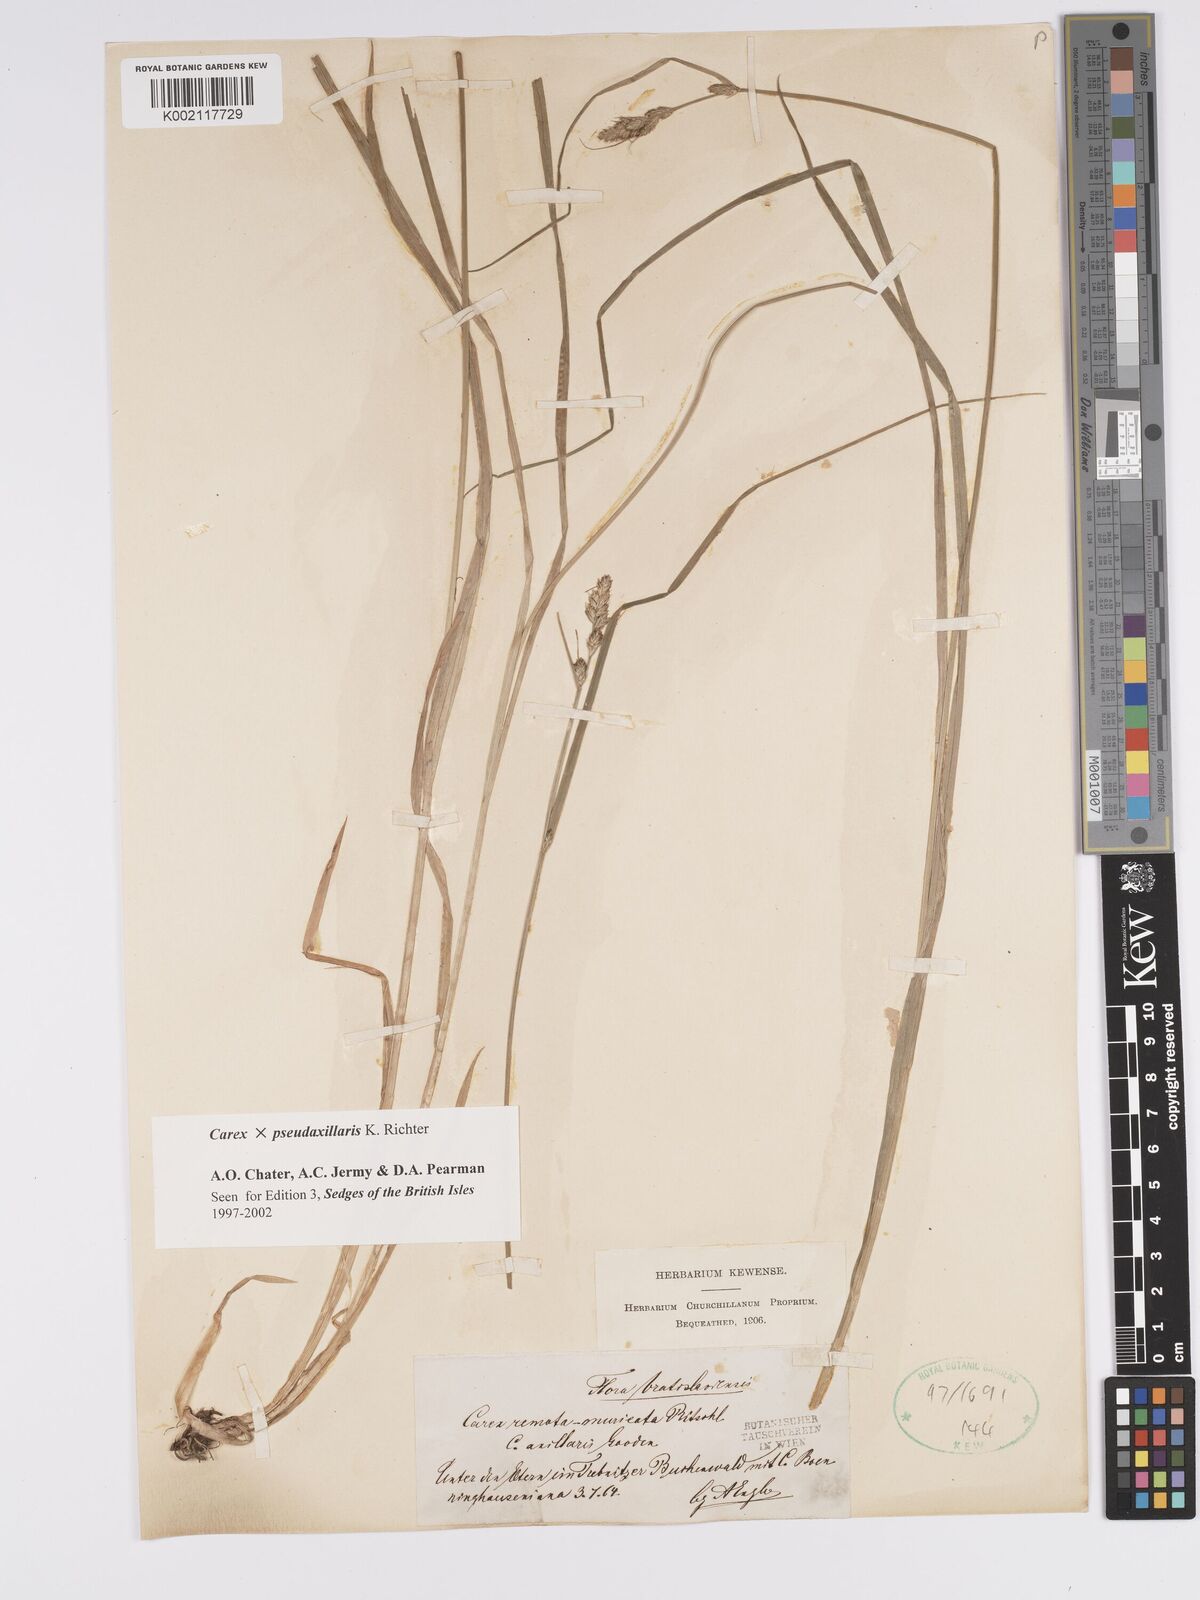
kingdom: Plantae
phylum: Tracheophyta
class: Liliopsida
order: Poales
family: Cyperaceae
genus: Carex
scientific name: Carex pseudoaxillaris
